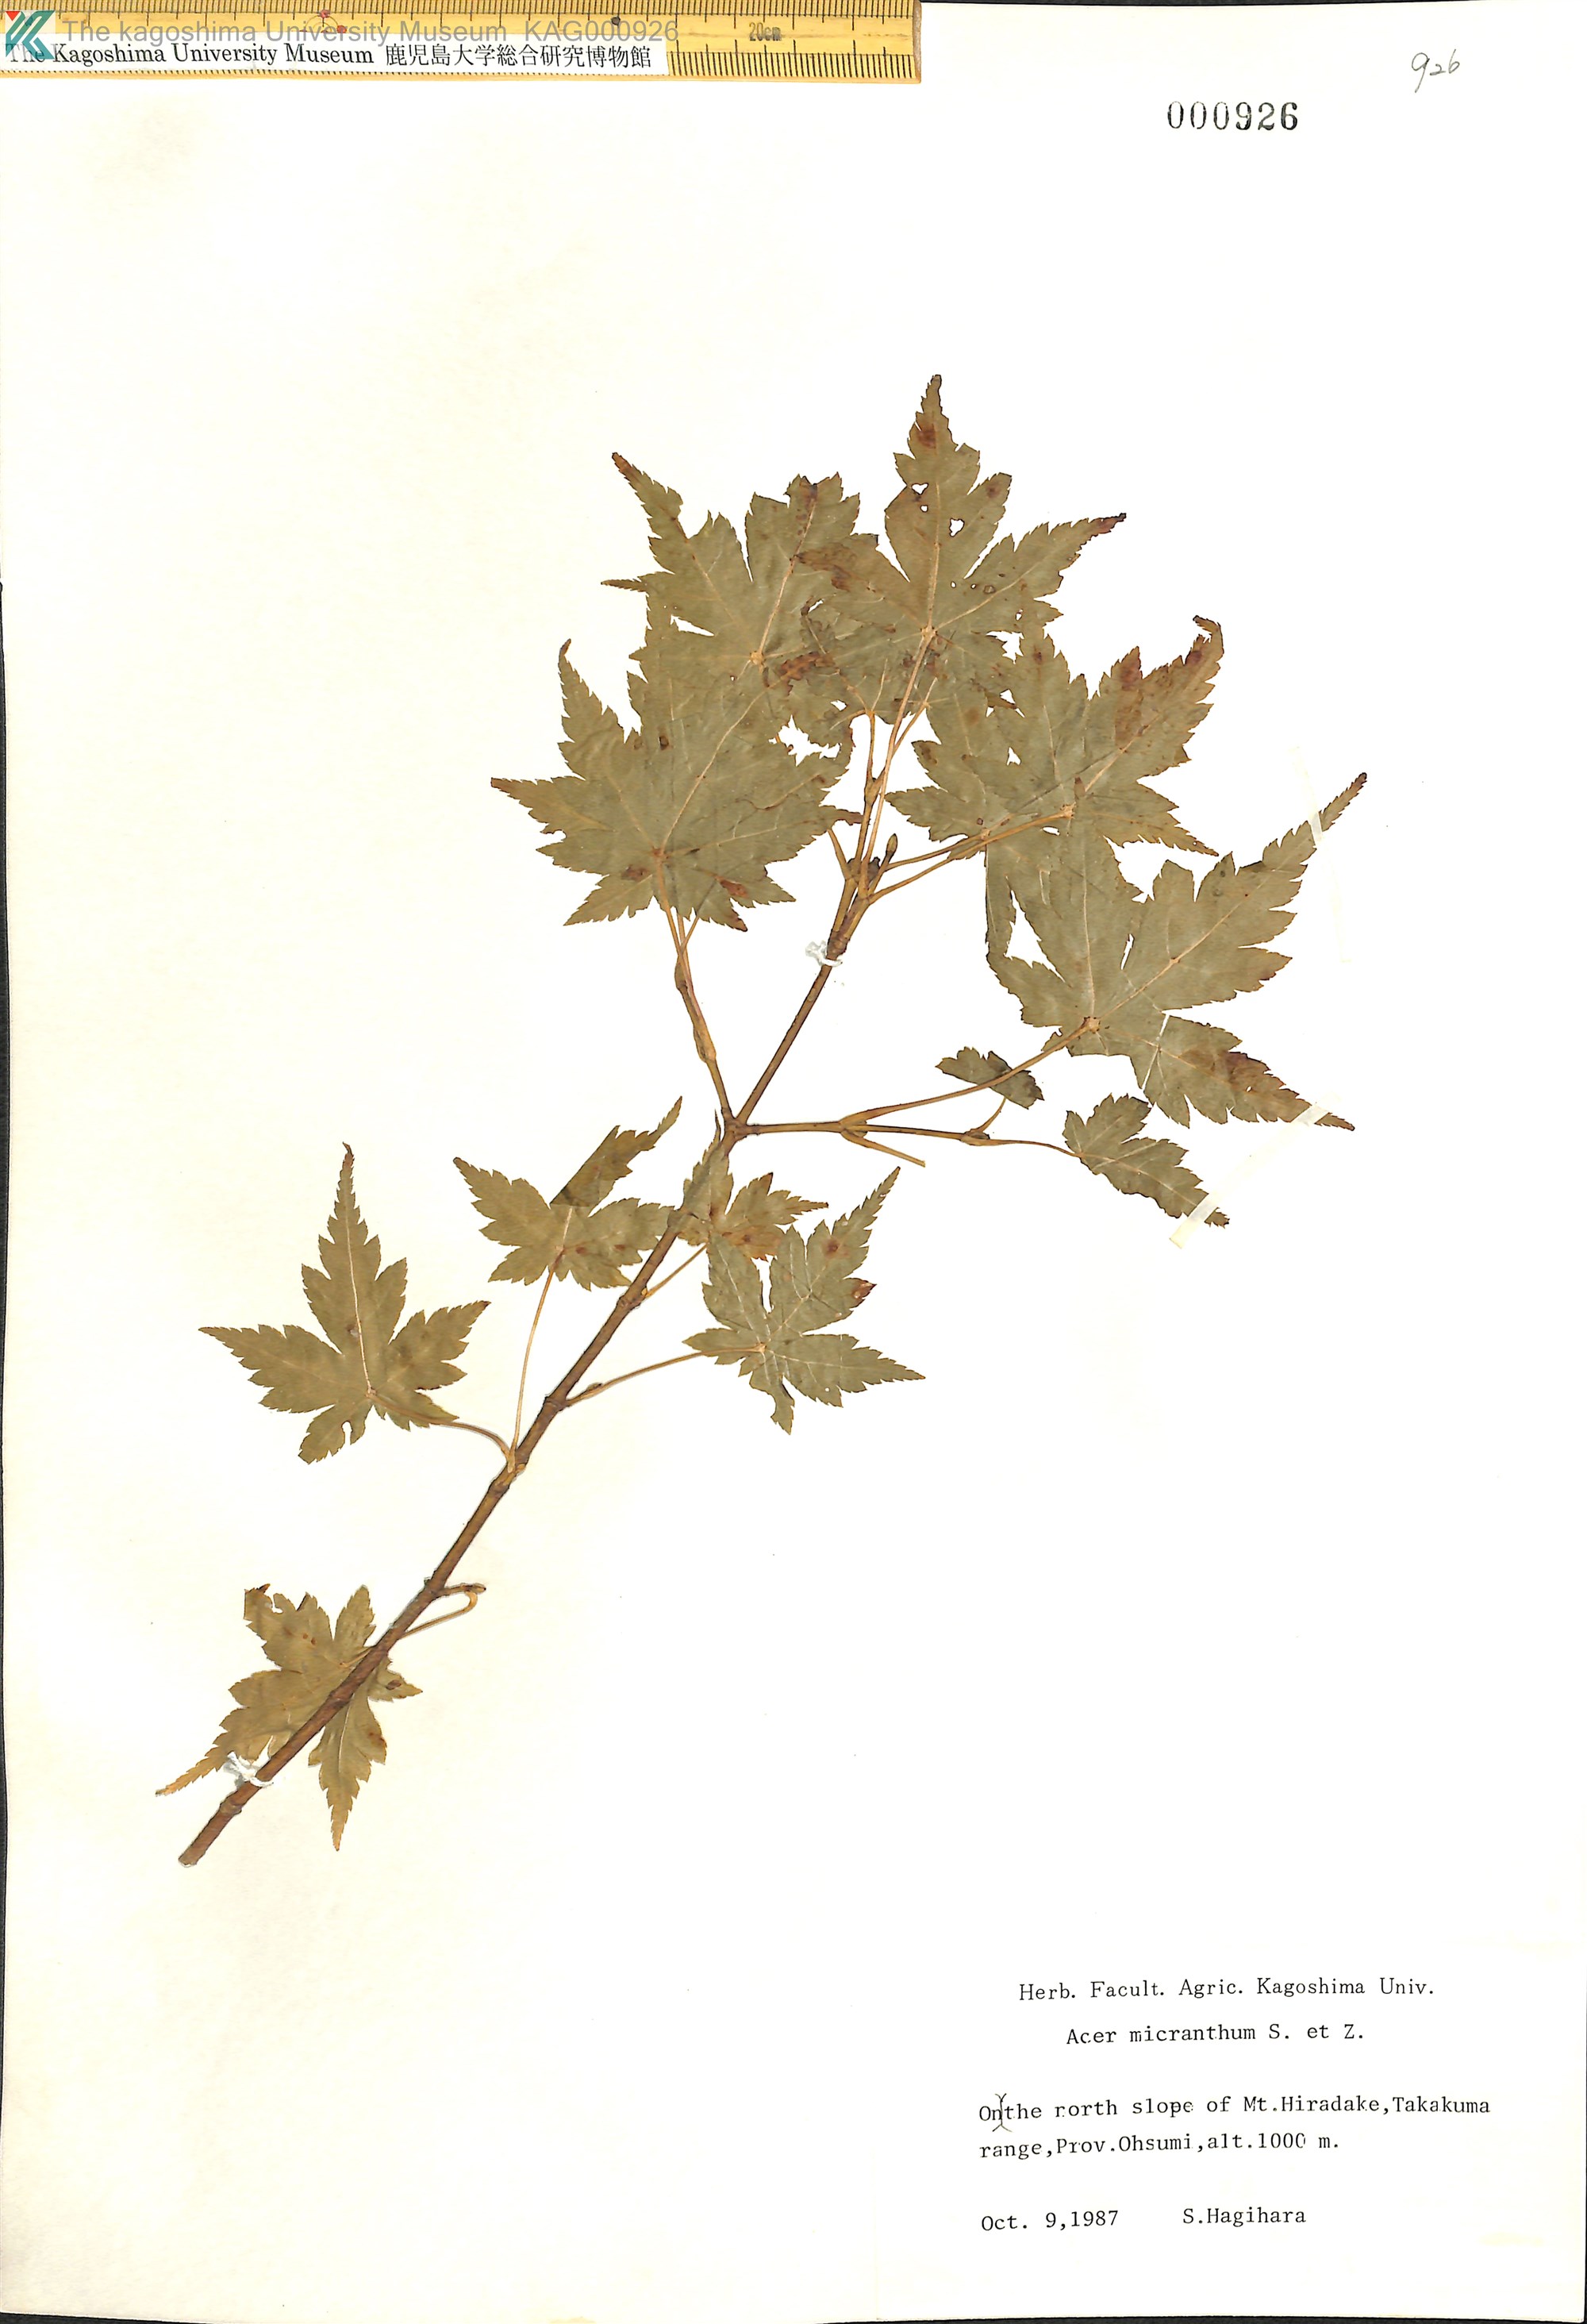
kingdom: Plantae
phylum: Tracheophyta
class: Magnoliopsida
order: Sapindales
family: Sapindaceae
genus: Acer
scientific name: Acer micranthum
